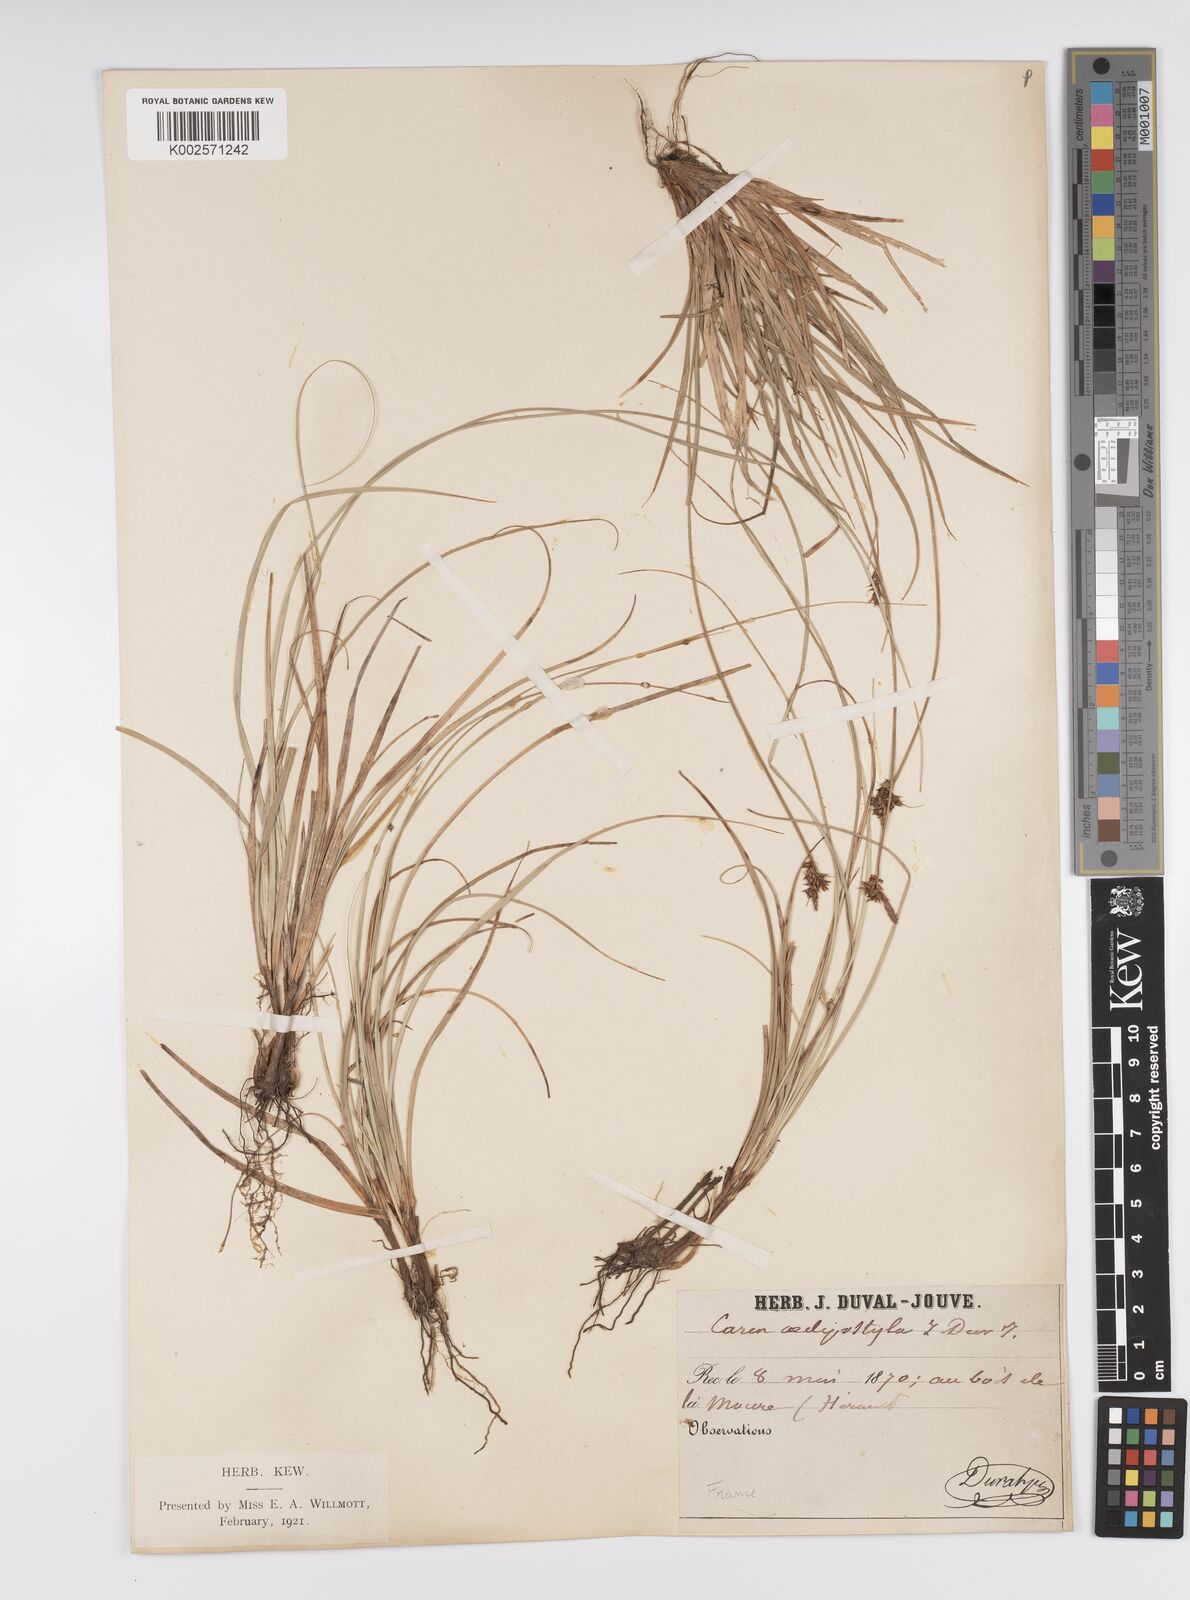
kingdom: Plantae
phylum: Tracheophyta
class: Liliopsida
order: Poales
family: Cyperaceae
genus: Carex
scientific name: Carex pilulifera
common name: Pill sedge
